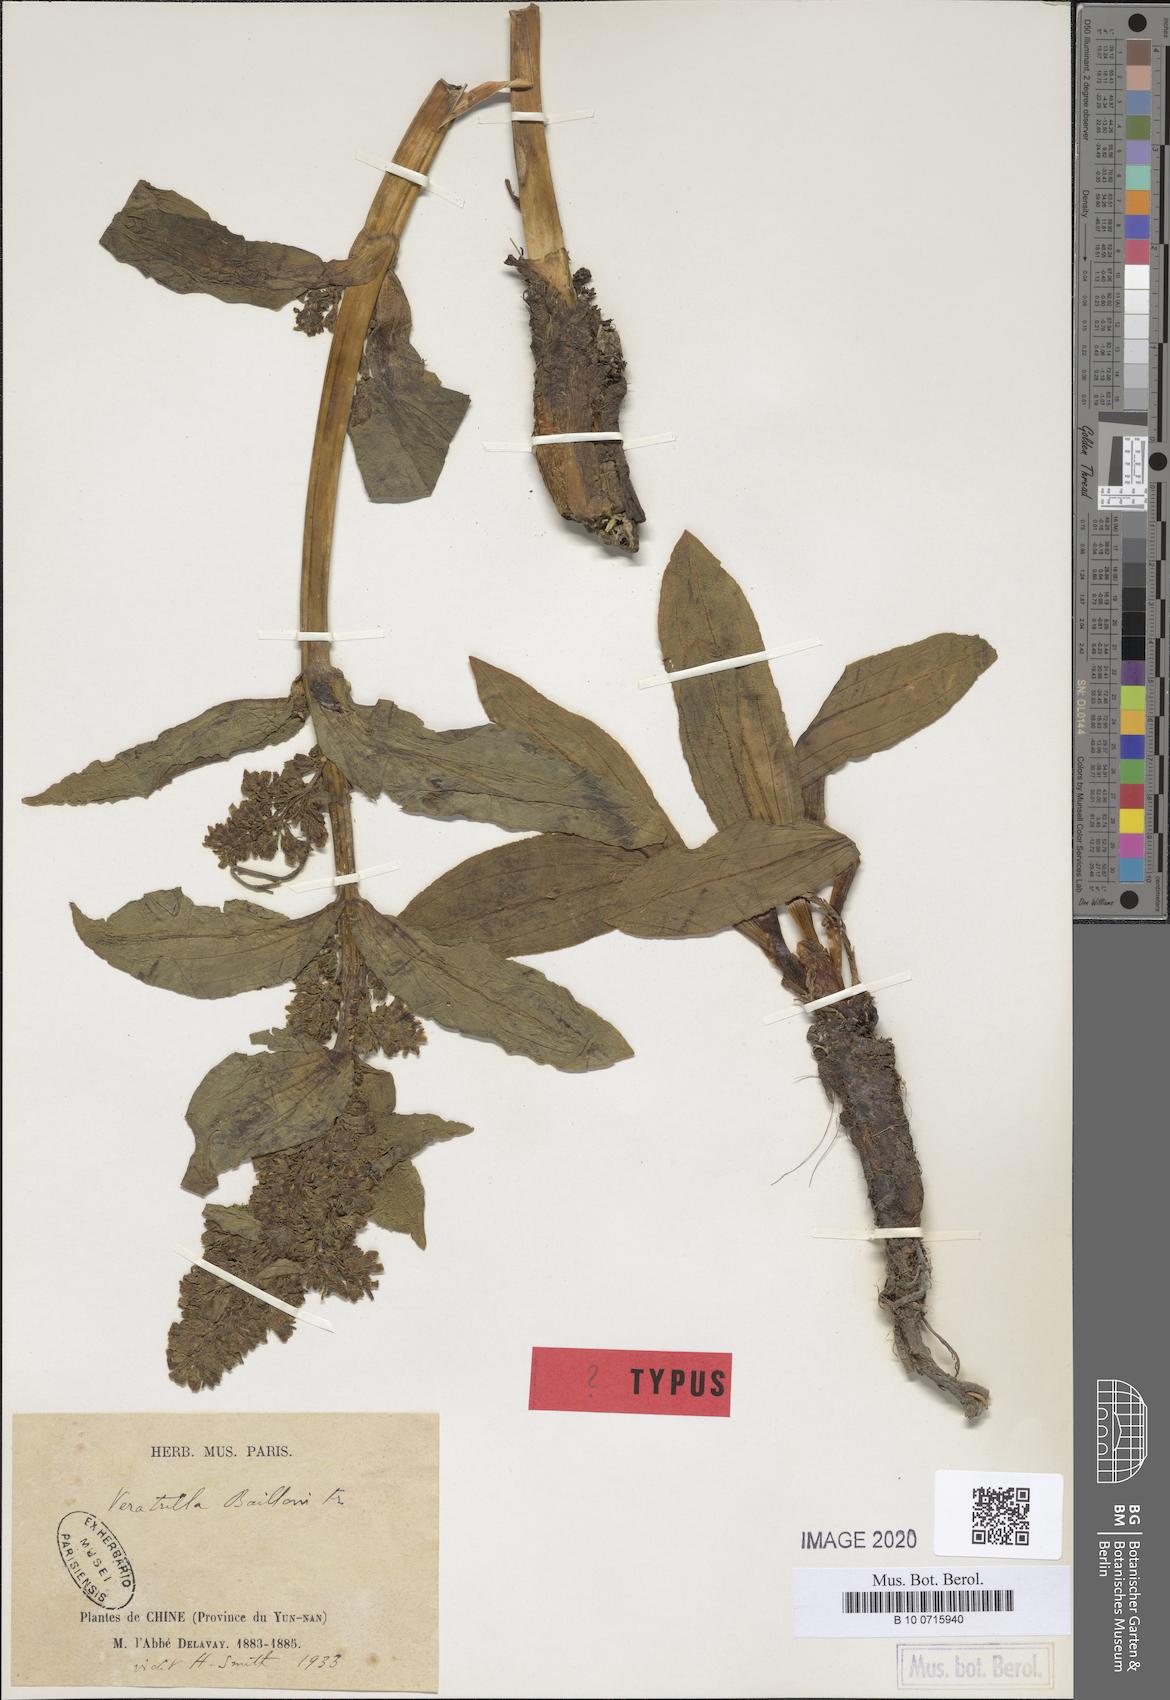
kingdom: Plantae
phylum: Tracheophyta
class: Magnoliopsida
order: Gentianales
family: Gentianaceae
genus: Veratrilla
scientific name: Veratrilla baillonii
